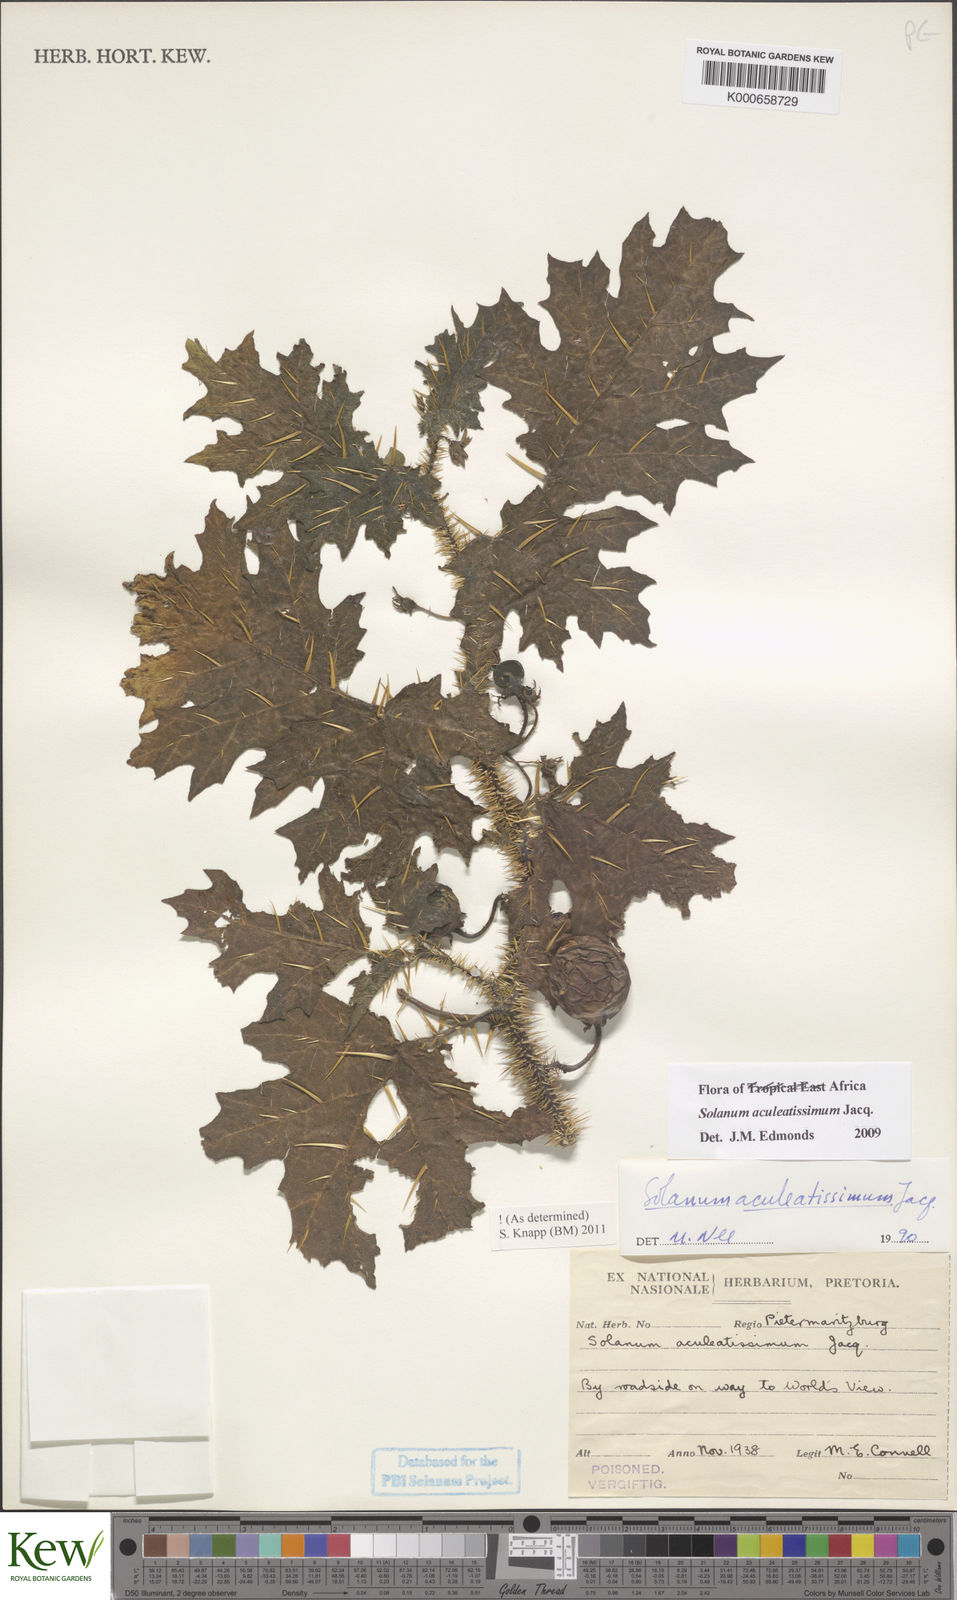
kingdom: Plantae
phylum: Tracheophyta
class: Magnoliopsida
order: Solanales
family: Solanaceae
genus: Solanum
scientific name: Solanum aculeatissimum
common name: Dutch eggplant
